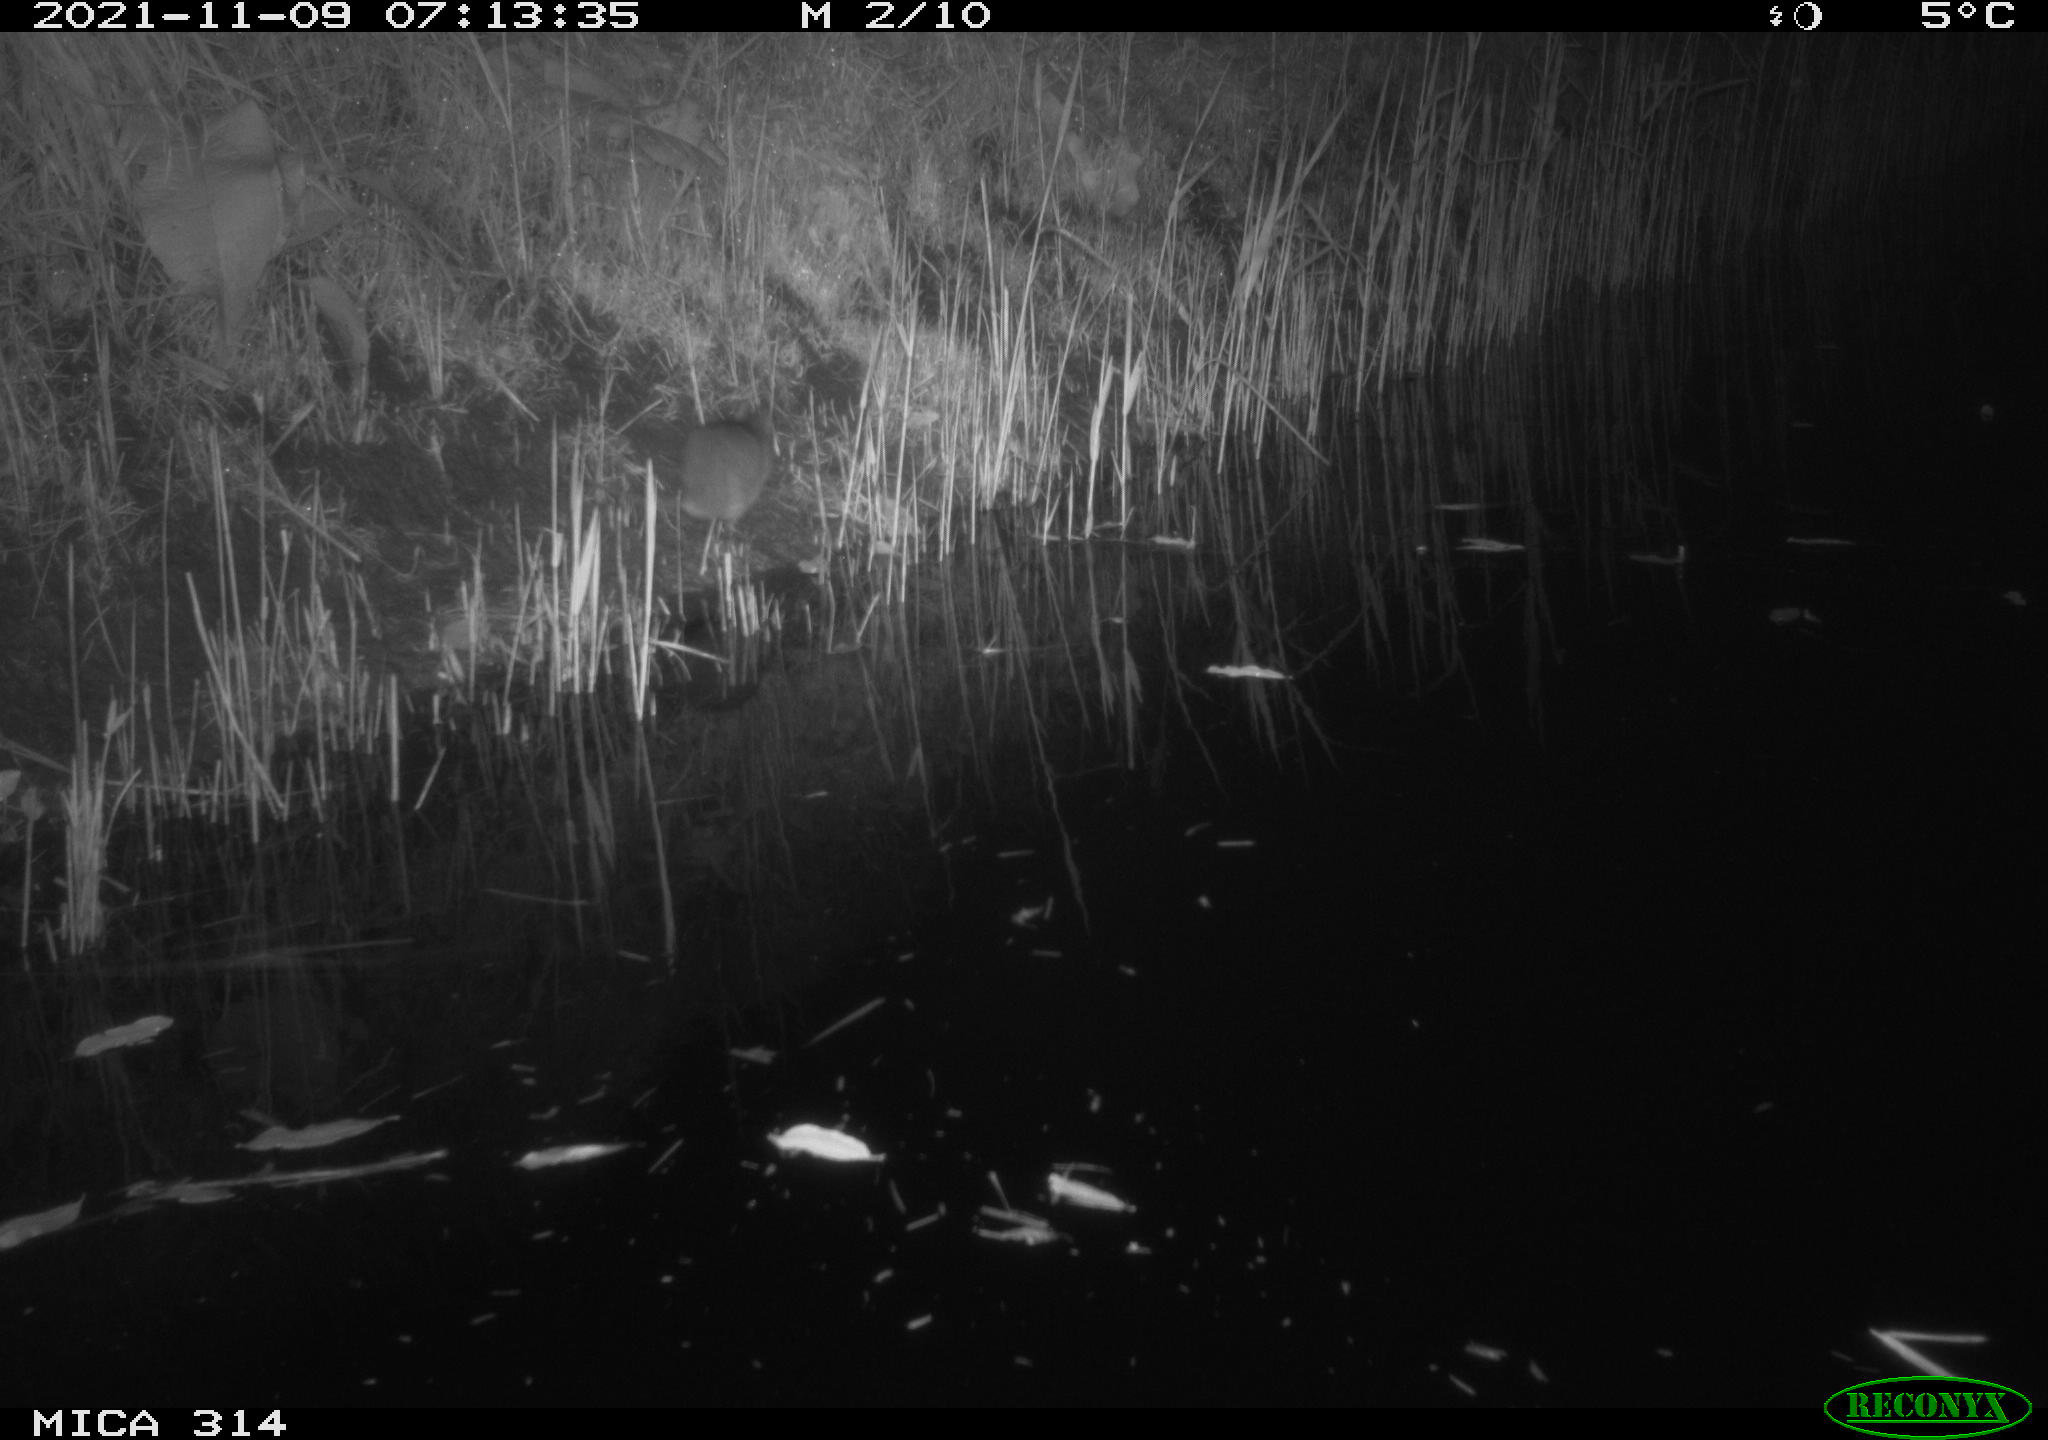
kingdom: Animalia
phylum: Chordata
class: Mammalia
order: Rodentia
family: Muridae
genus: Rattus
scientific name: Rattus norvegicus
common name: Brown rat
